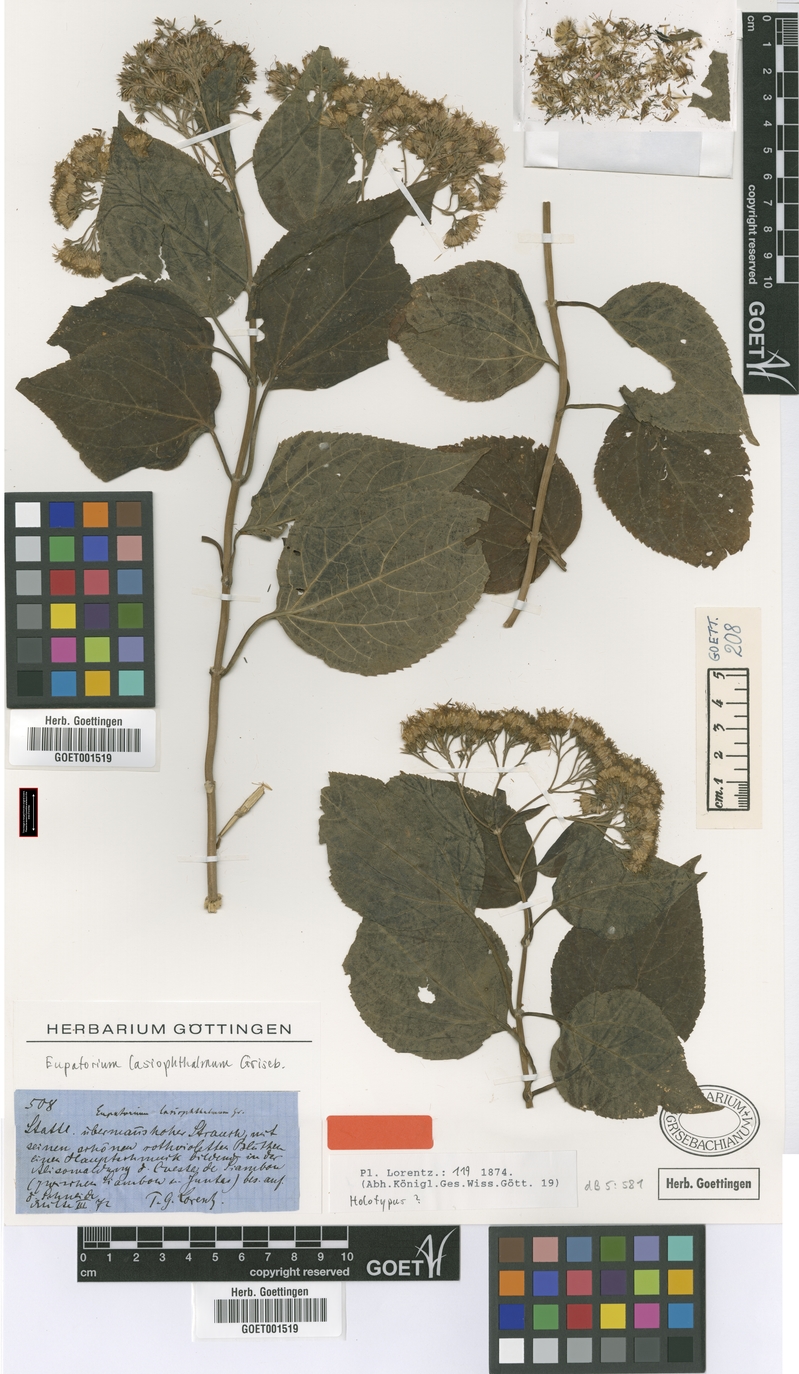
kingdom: Plantae
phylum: Tracheophyta
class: Magnoliopsida
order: Asterales
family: Asteraceae
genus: Kaunia
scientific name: Kaunia lasiophthalma
